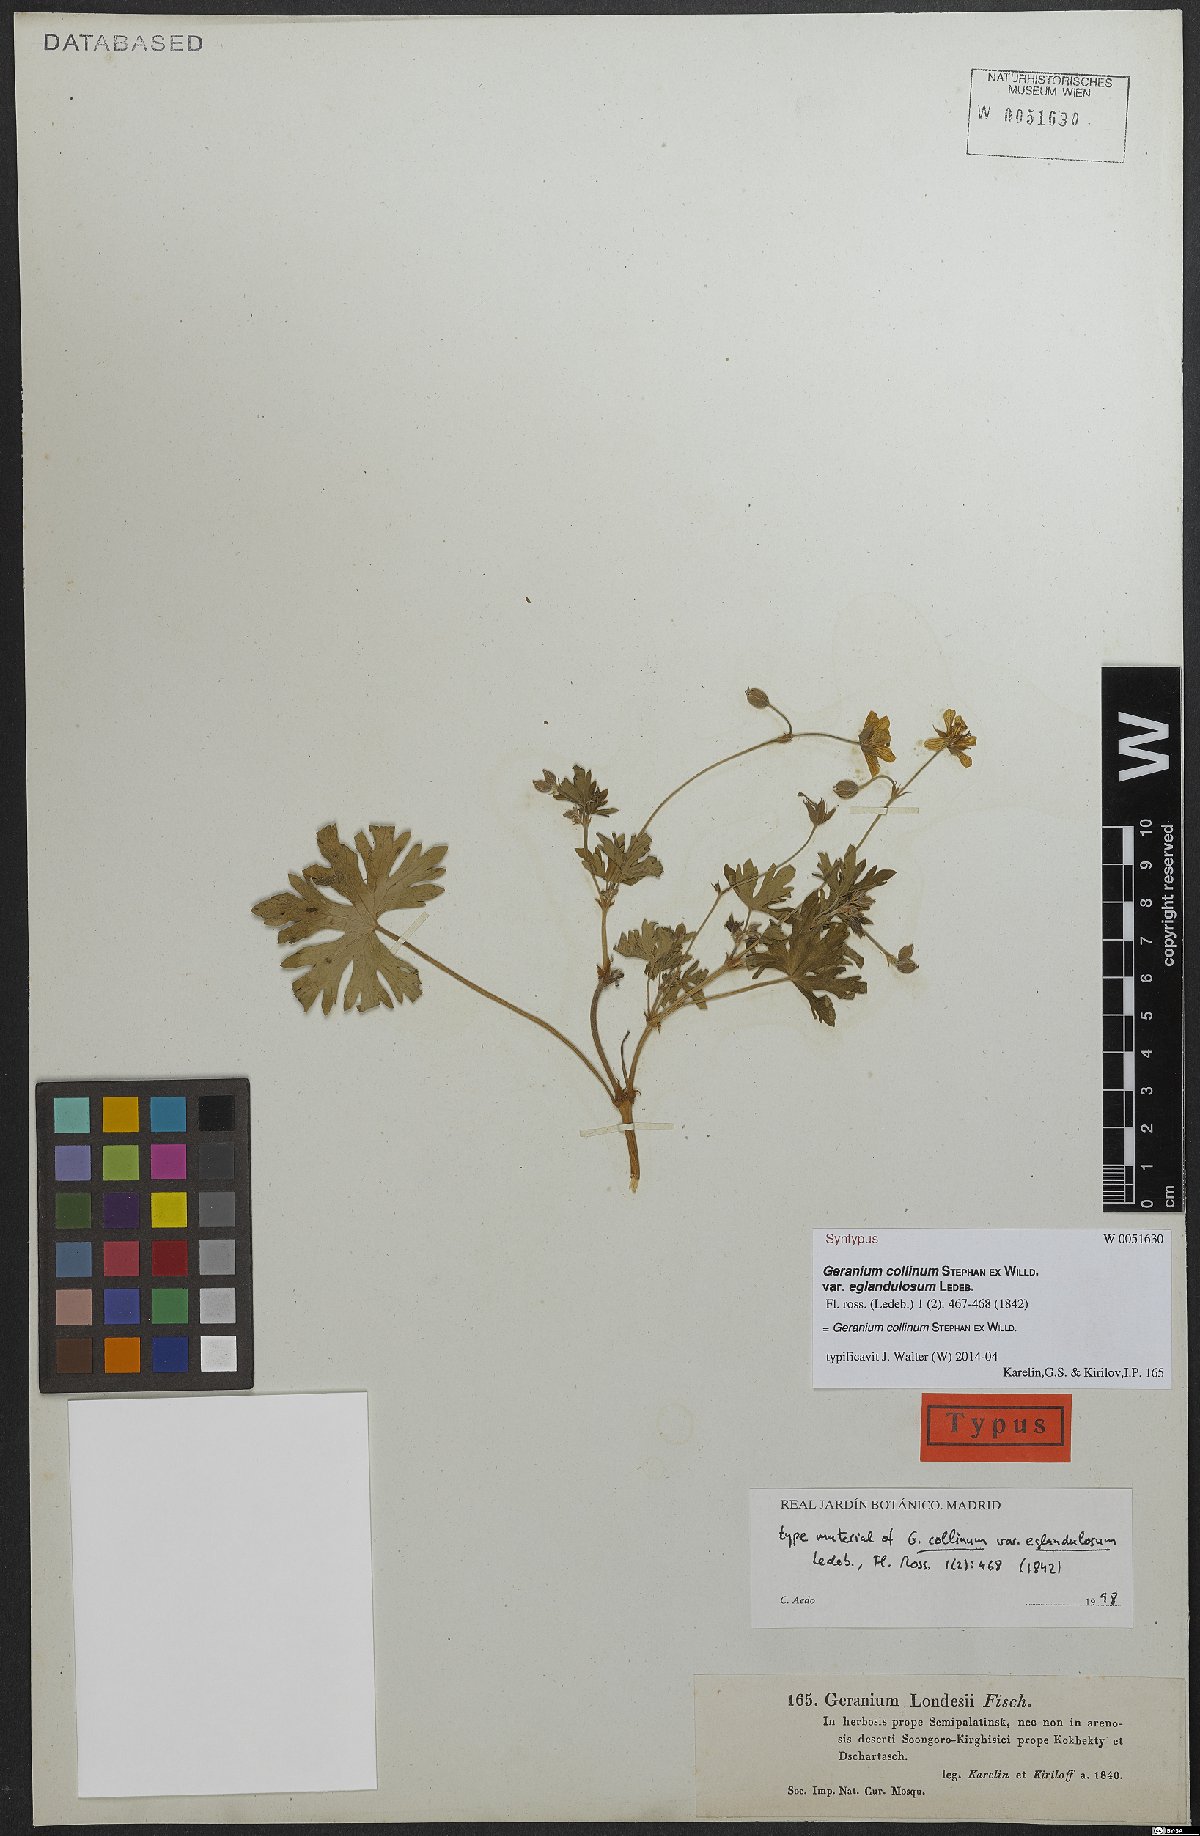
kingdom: Plantae
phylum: Tracheophyta
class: Magnoliopsida
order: Geraniales
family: Geraniaceae
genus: Geranium
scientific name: Geranium collinum
